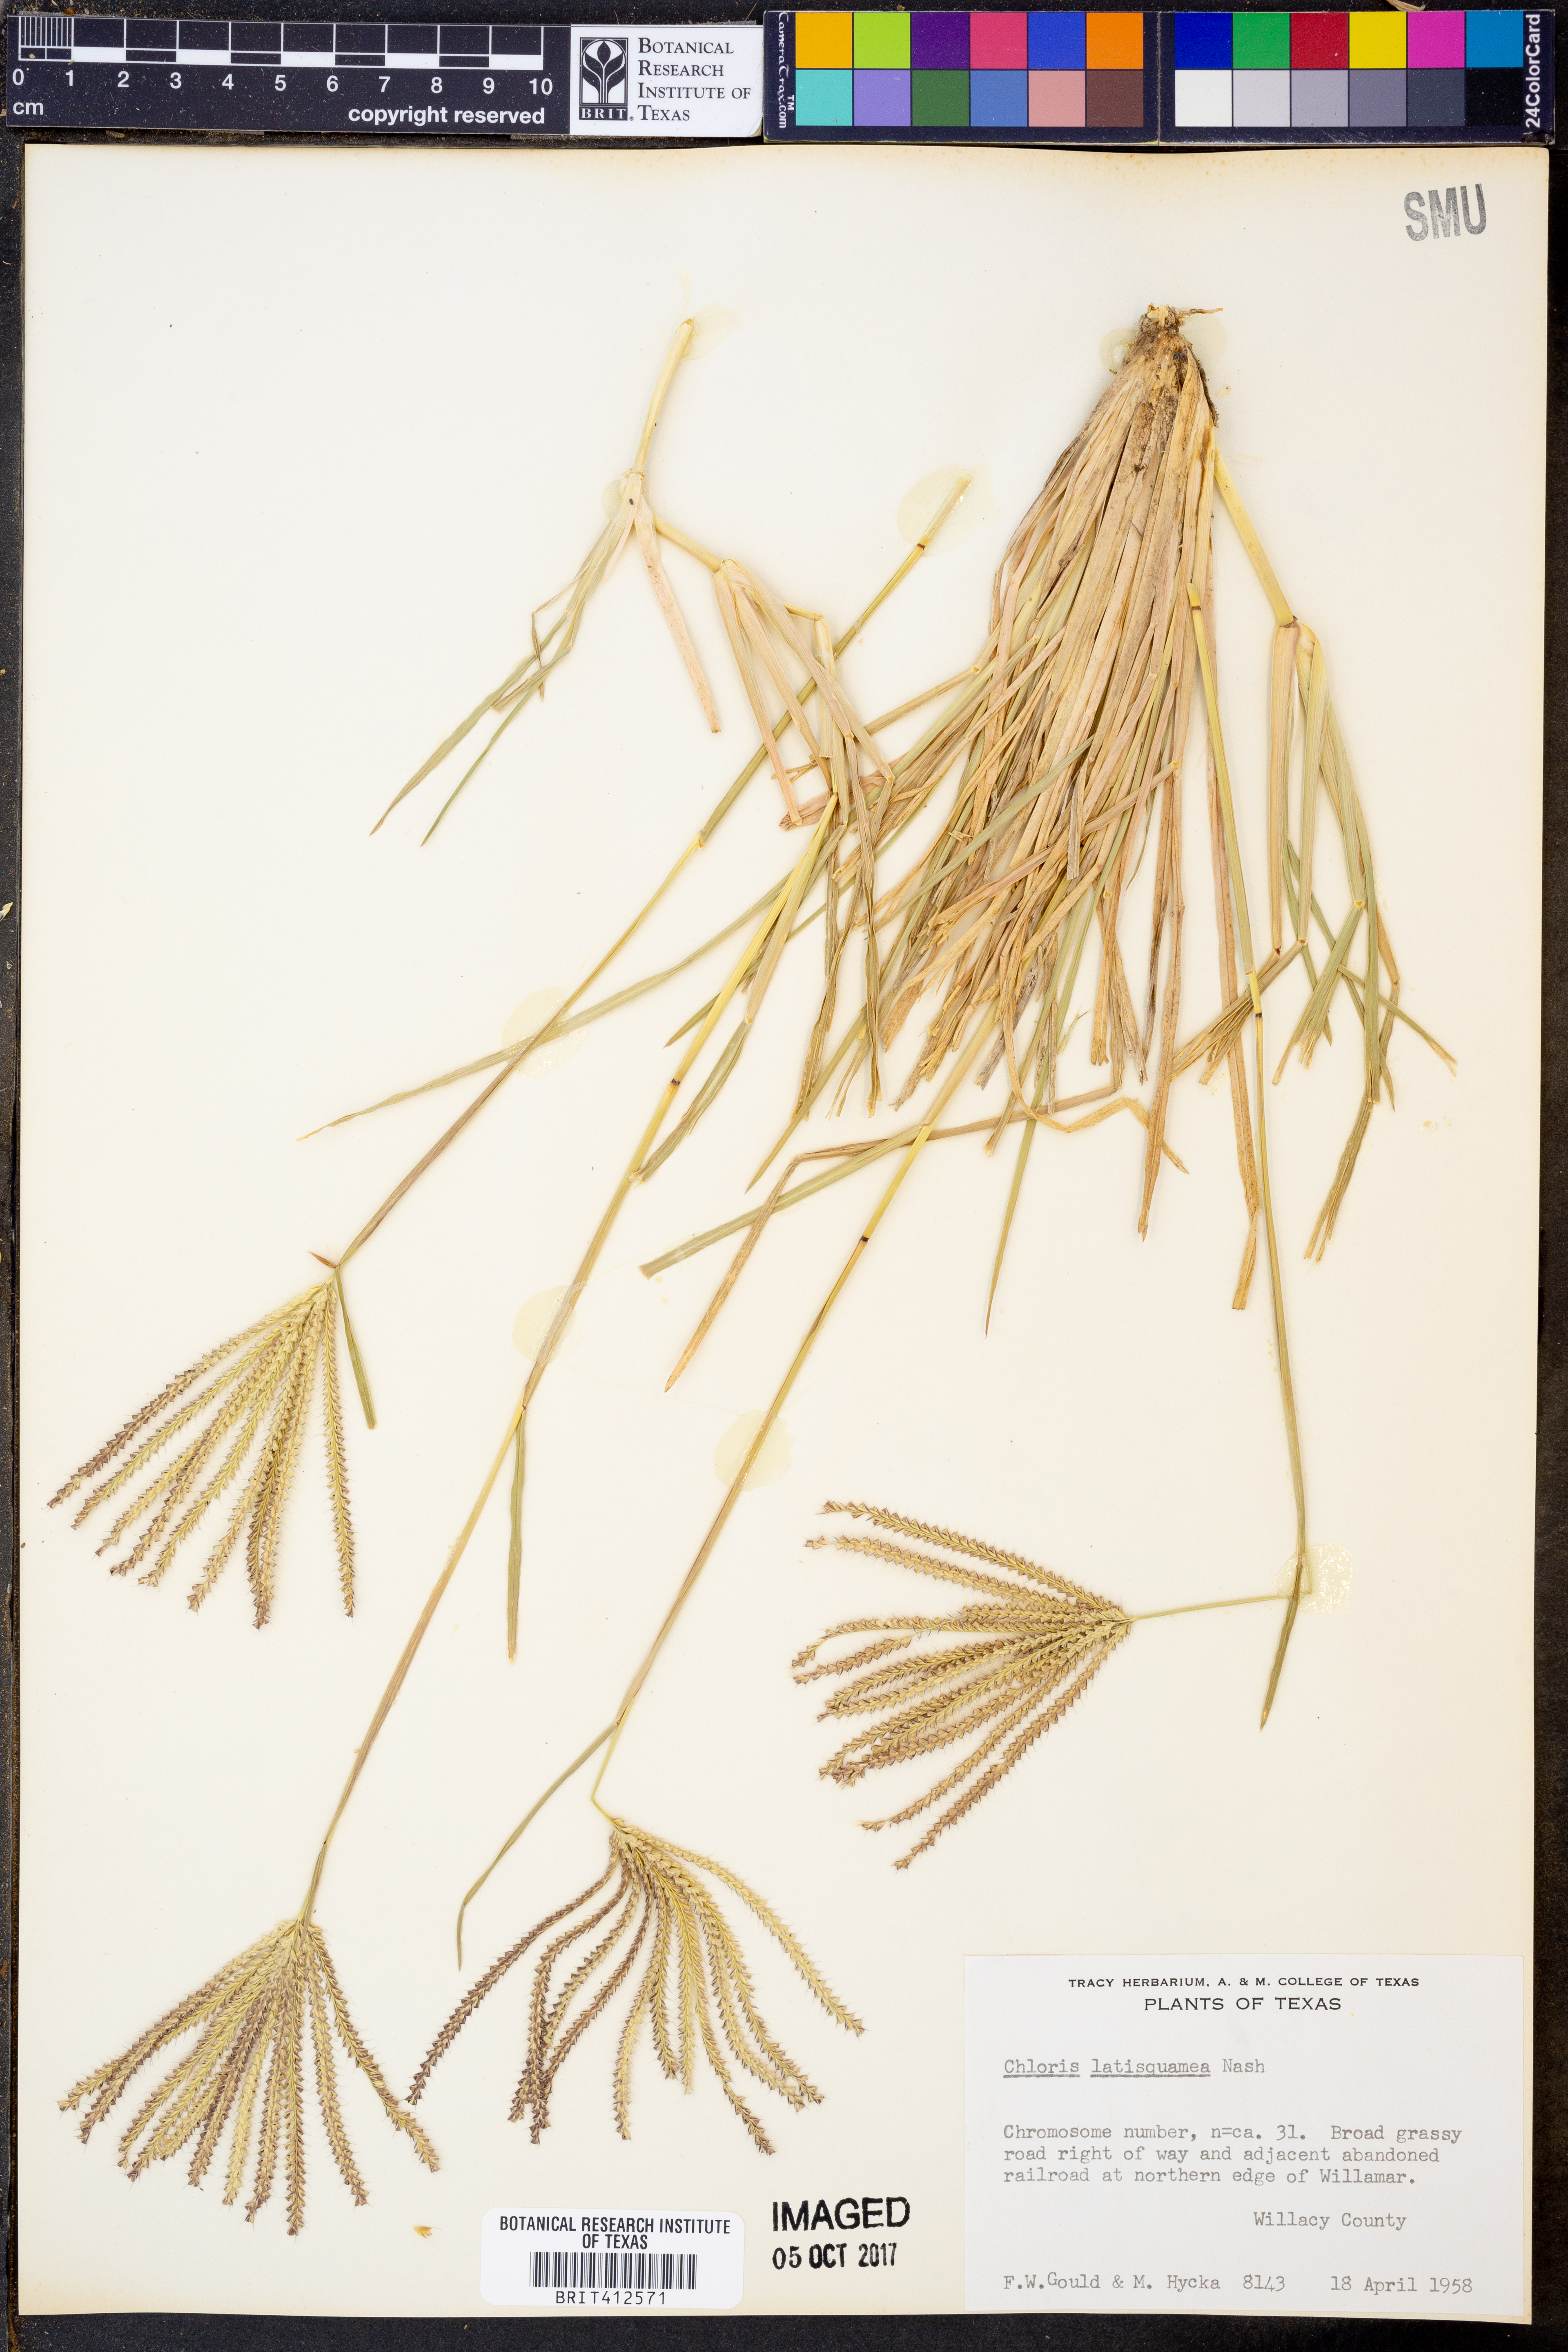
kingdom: Plantae
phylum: Tracheophyta
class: Liliopsida
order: Poales
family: Poaceae
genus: Chloris
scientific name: Chloris subdolichostachya
